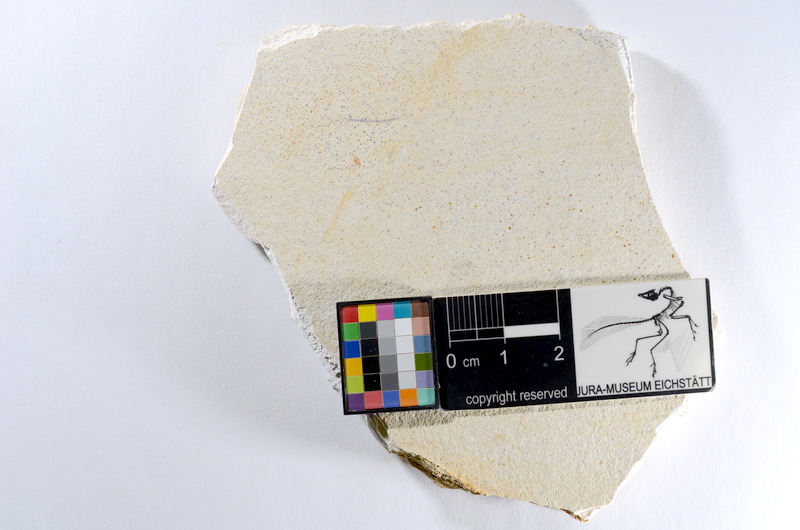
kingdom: Animalia
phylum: Chordata
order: Salmoniformes
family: Orthogonikleithridae
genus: Orthogonikleithrus
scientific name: Orthogonikleithrus hoelli
